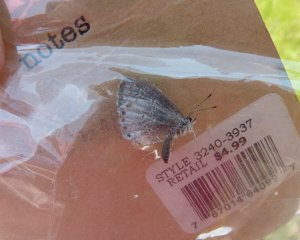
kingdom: Animalia
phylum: Arthropoda
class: Insecta
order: Lepidoptera
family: Lycaenidae
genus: Celastrina
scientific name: Celastrina
